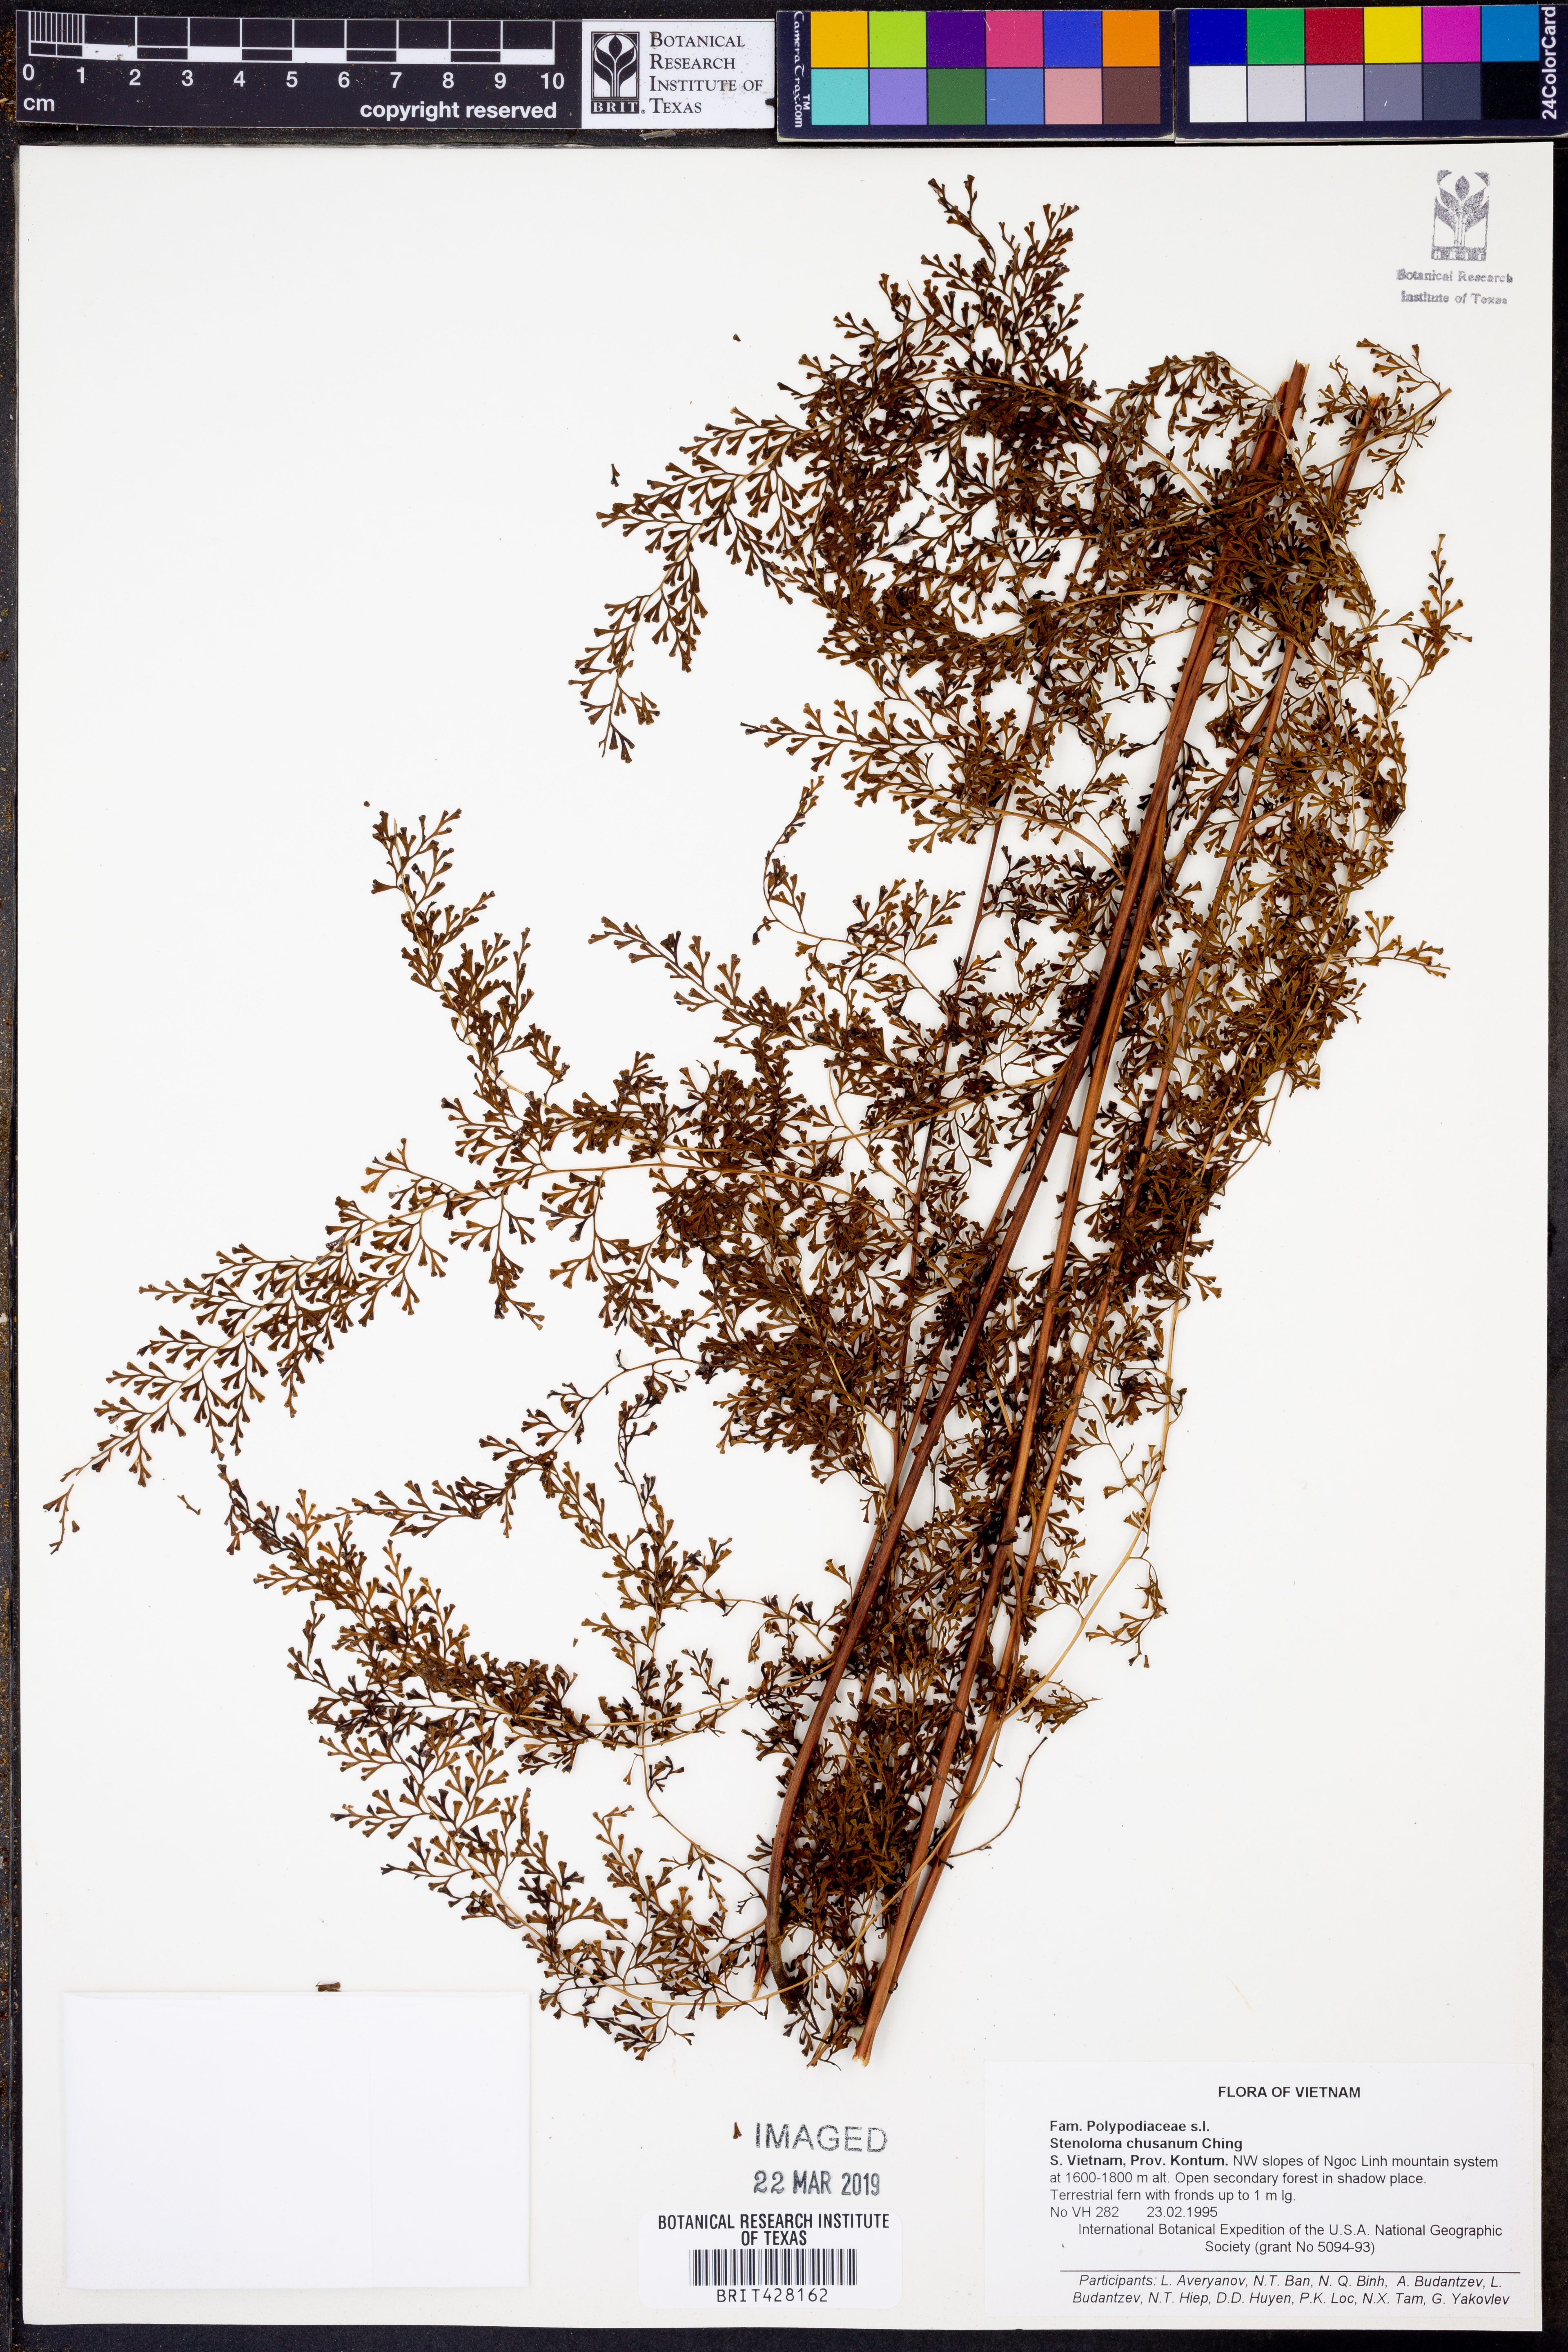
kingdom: Plantae
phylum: Tracheophyta
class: Polypodiopsida
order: Polypodiales
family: Lindsaeaceae
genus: Odontosoria
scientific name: Odontosoria chinensis
